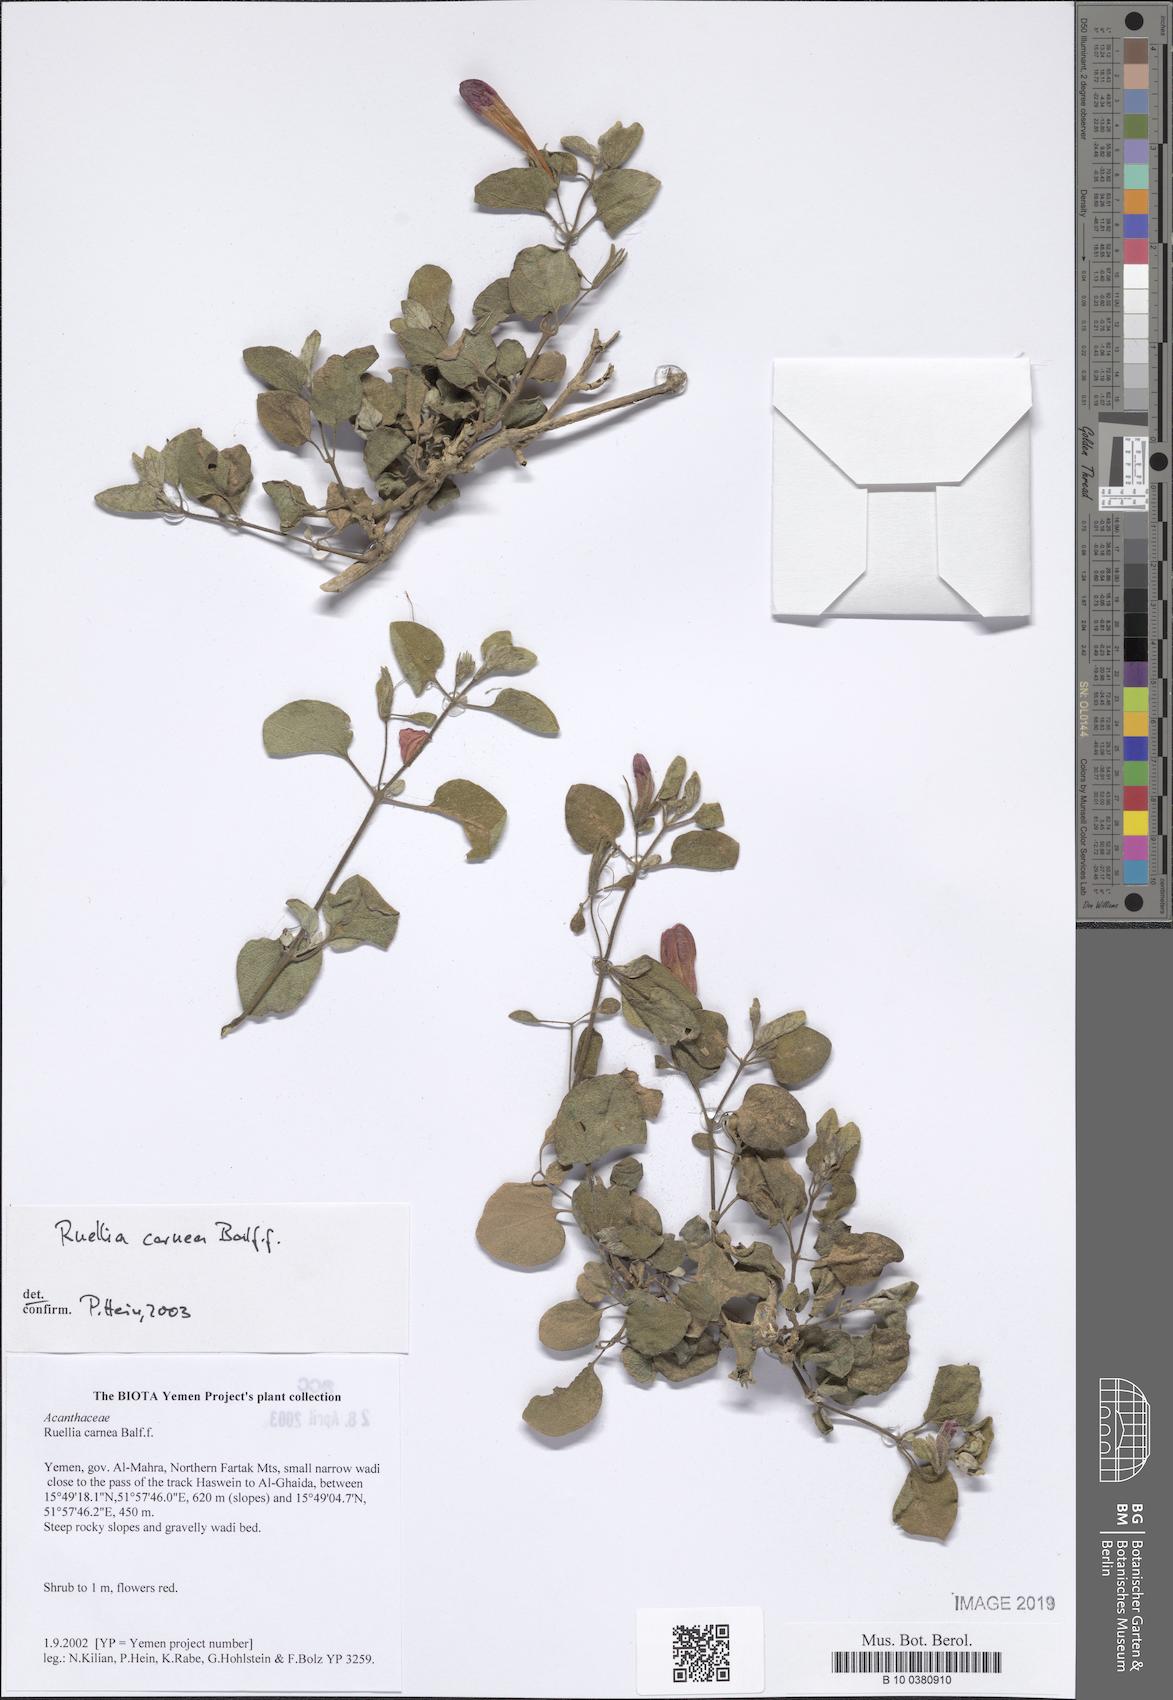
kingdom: Plantae
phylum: Tracheophyta
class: Magnoliopsida
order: Lamiales
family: Acanthaceae
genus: Ruellia
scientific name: Ruellia carnea
